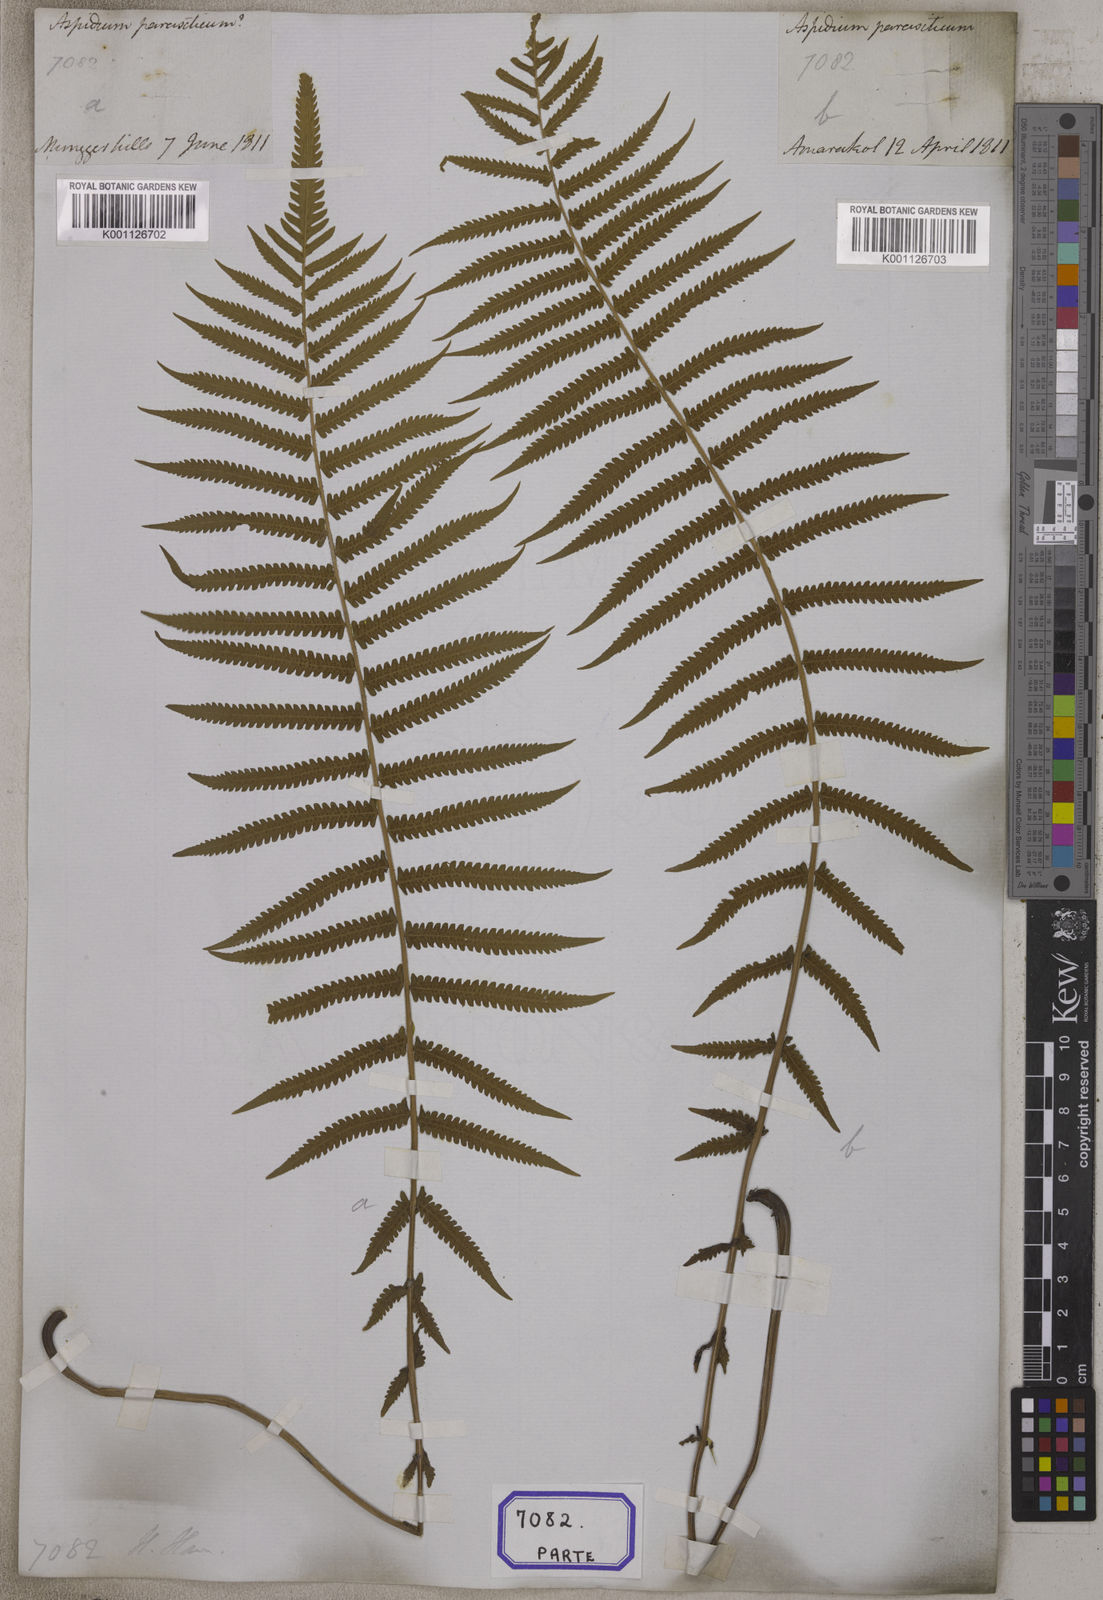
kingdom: Plantae
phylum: Tracheophyta
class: Polypodiopsida
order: Polypodiales
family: Thelypteridaceae
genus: Christella
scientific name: Christella parasitica
